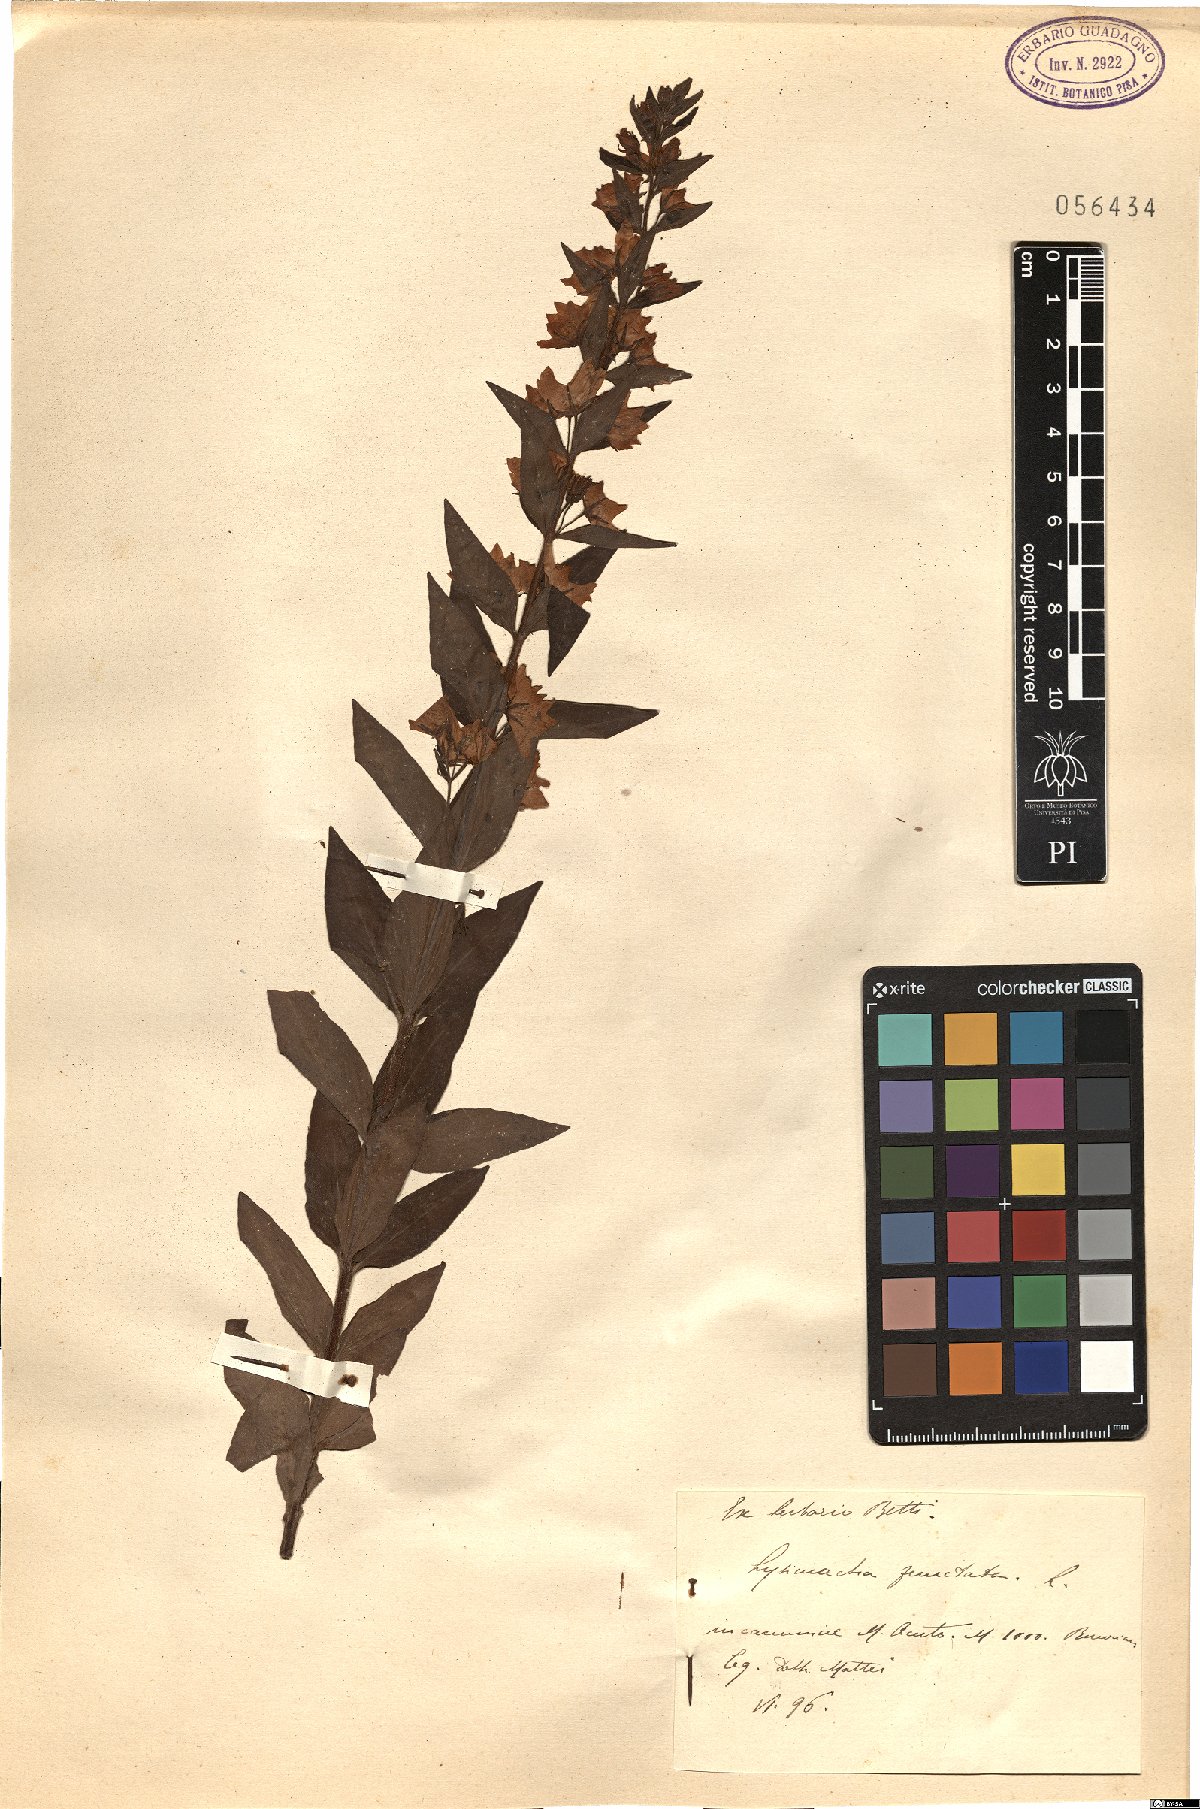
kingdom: Plantae
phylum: Tracheophyta
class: Magnoliopsida
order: Ericales
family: Primulaceae
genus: Lysimachia
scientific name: Lysimachia punctata
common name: Dotted loosestrife
